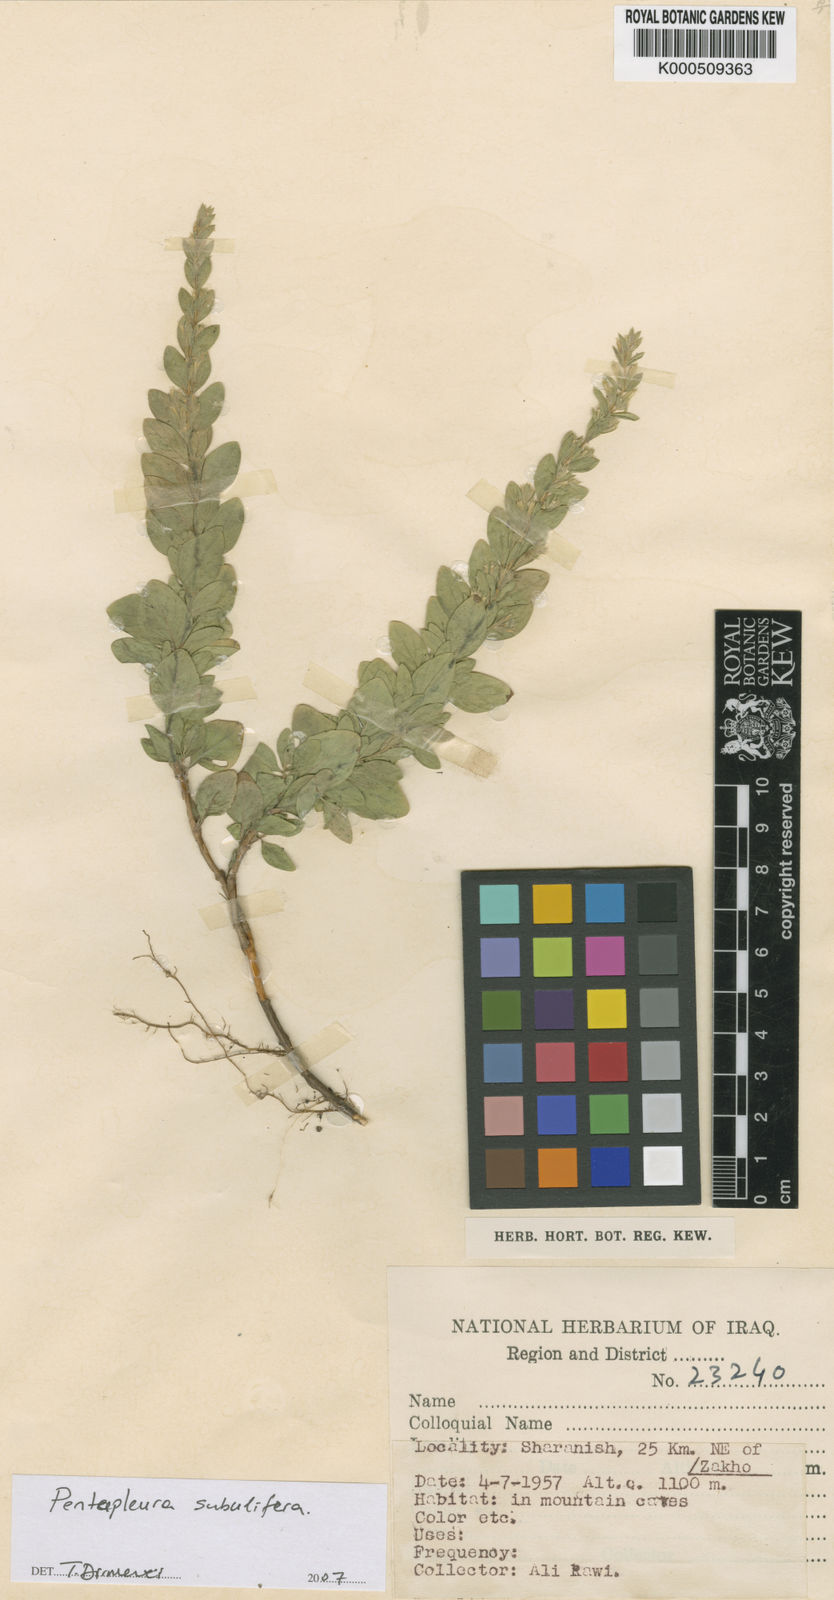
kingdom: Plantae
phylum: Tracheophyta
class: Magnoliopsida
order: Lamiales
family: Lamiaceae
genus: Pentapleura
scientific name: Pentapleura subulifera
